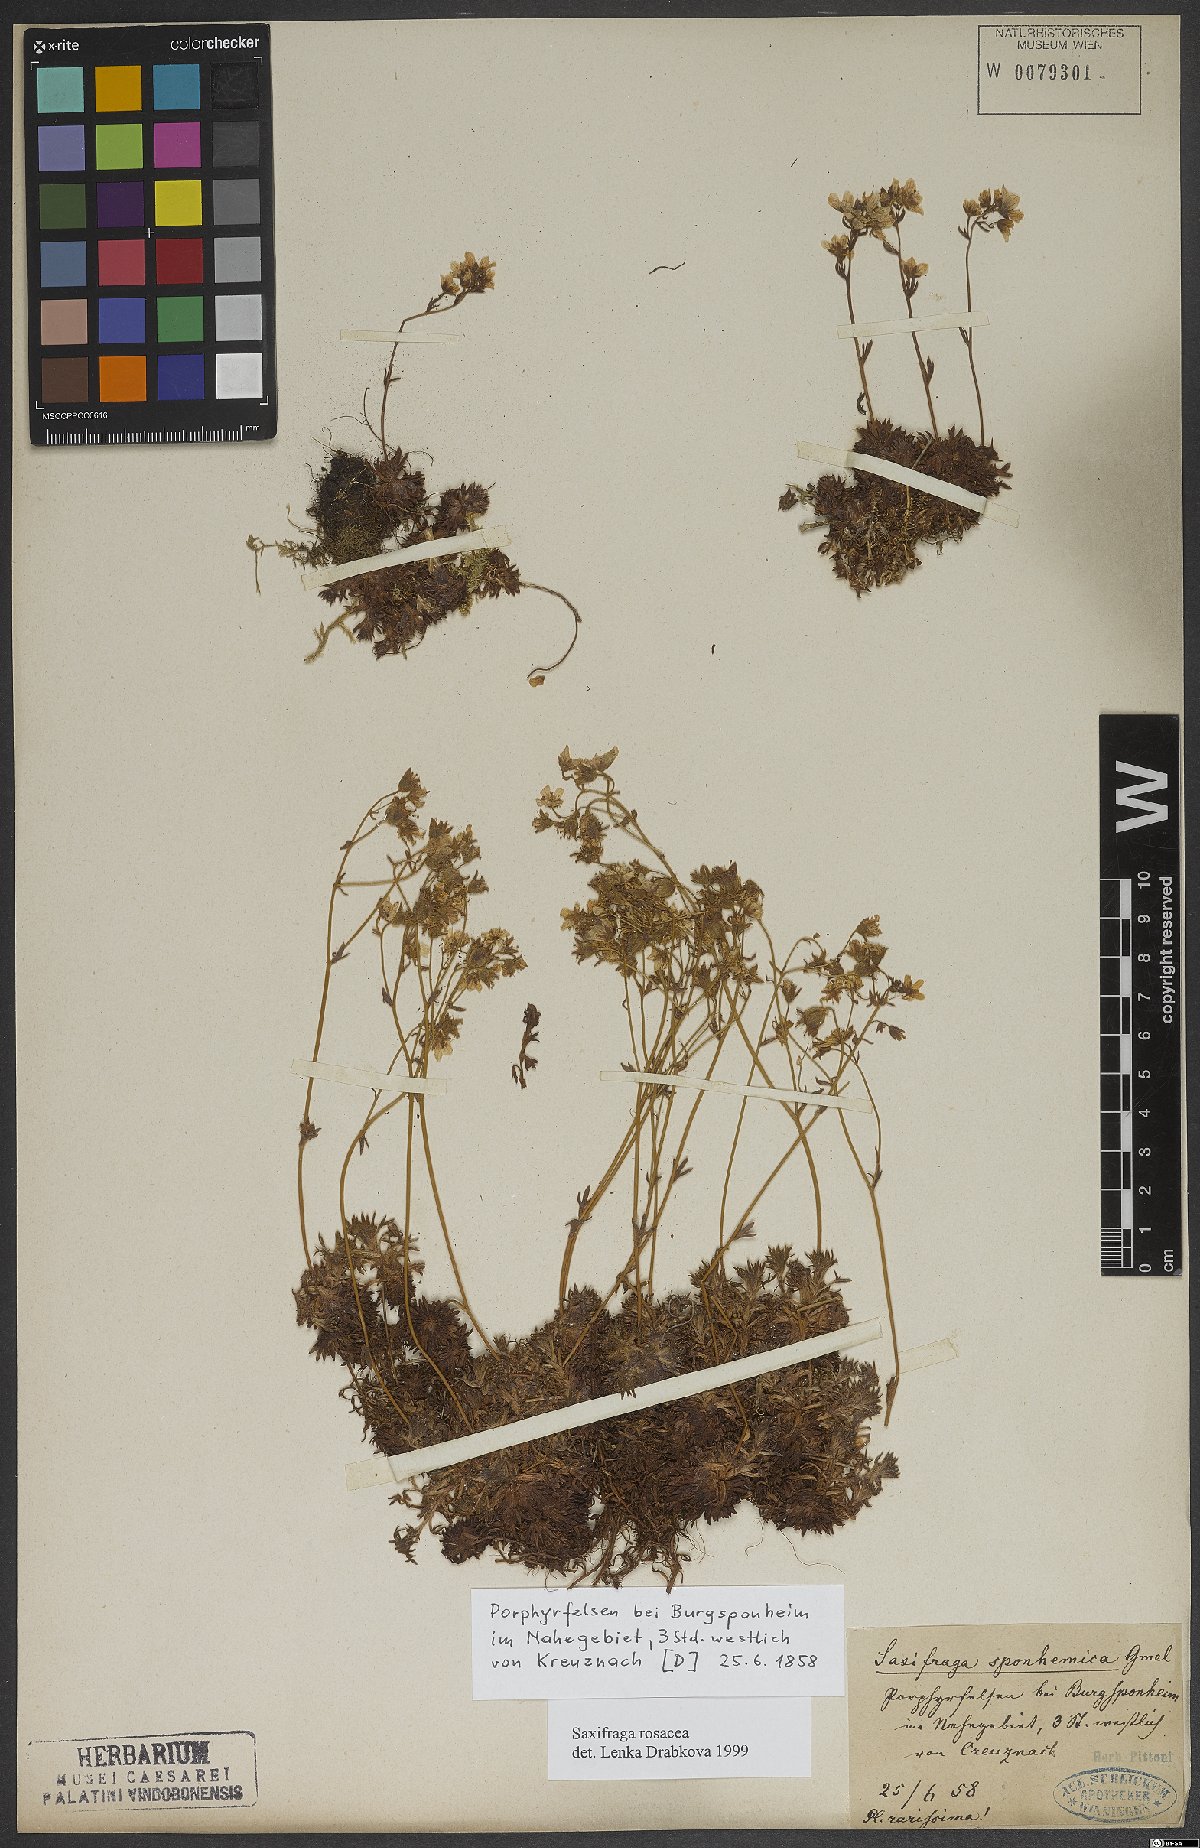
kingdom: Plantae
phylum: Tracheophyta
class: Magnoliopsida
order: Saxifragales
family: Saxifragaceae
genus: Saxifraga
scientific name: Saxifraga rosacea
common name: Irish saxifrage
